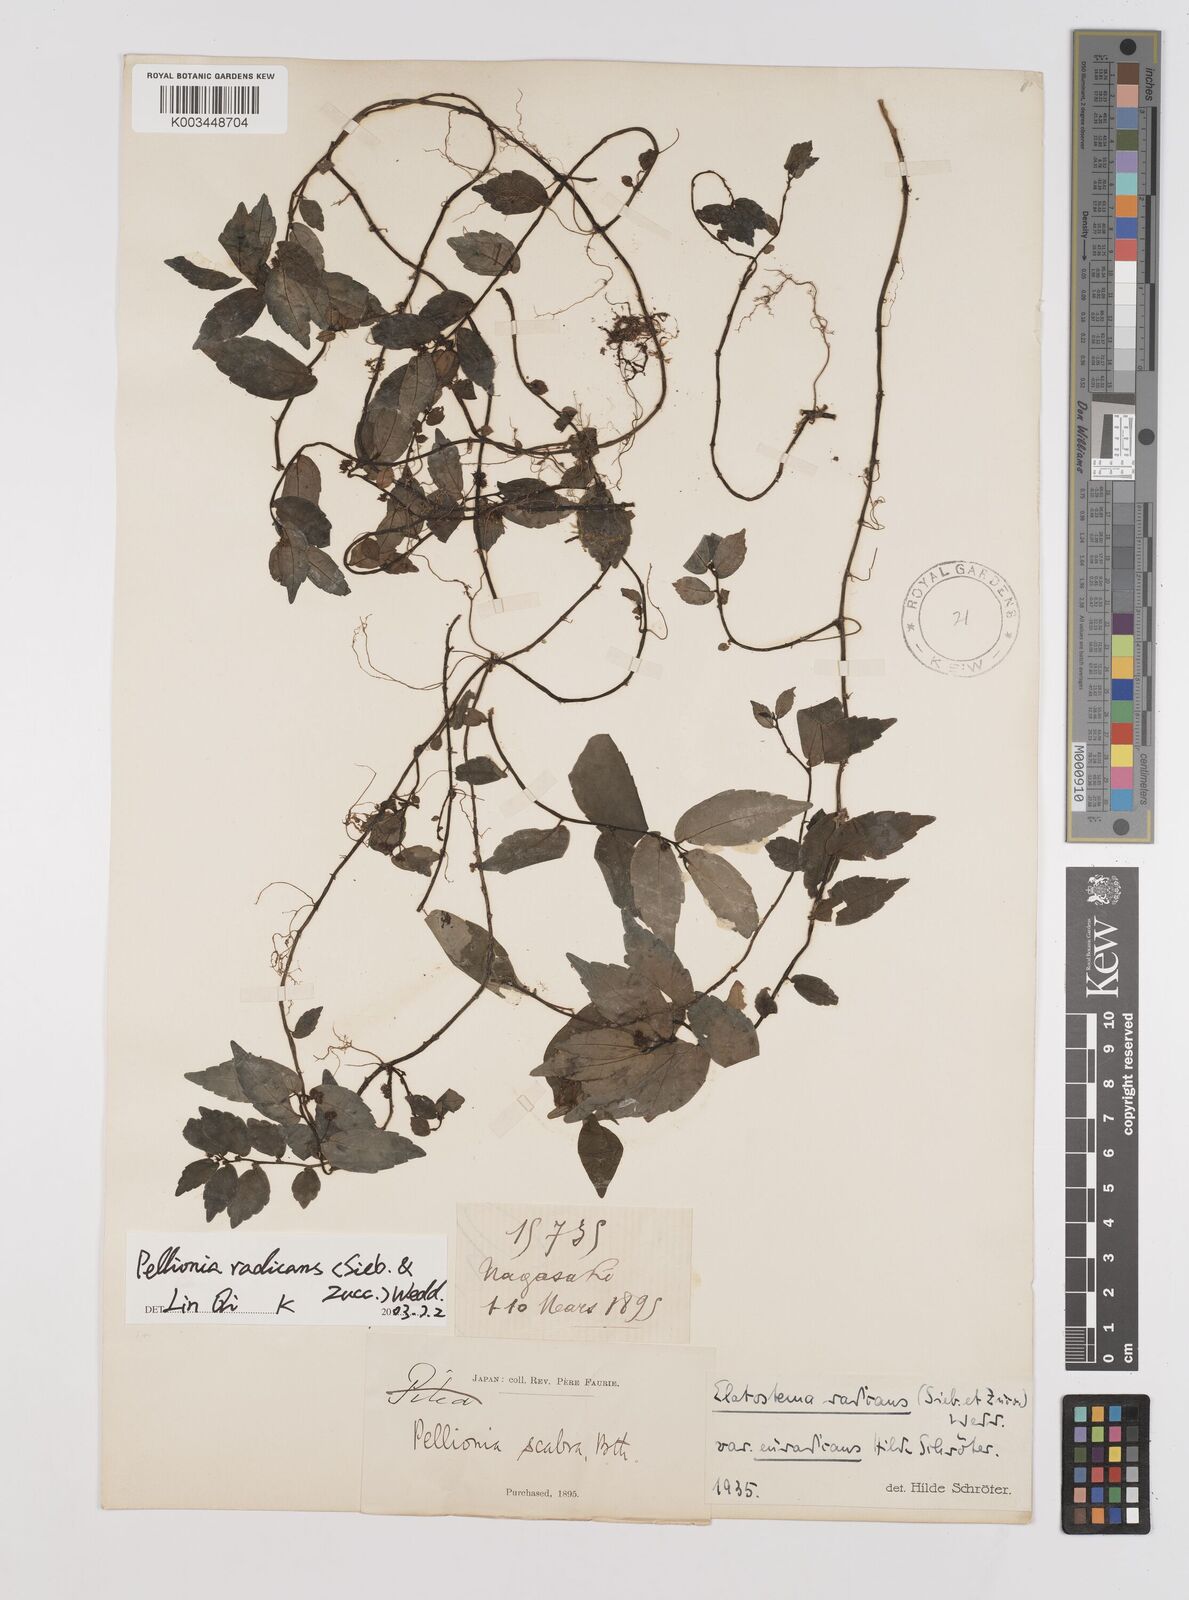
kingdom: Plantae
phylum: Tracheophyta
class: Magnoliopsida
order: Rosales
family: Urticaceae
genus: Elatostema
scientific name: Elatostema radicans
